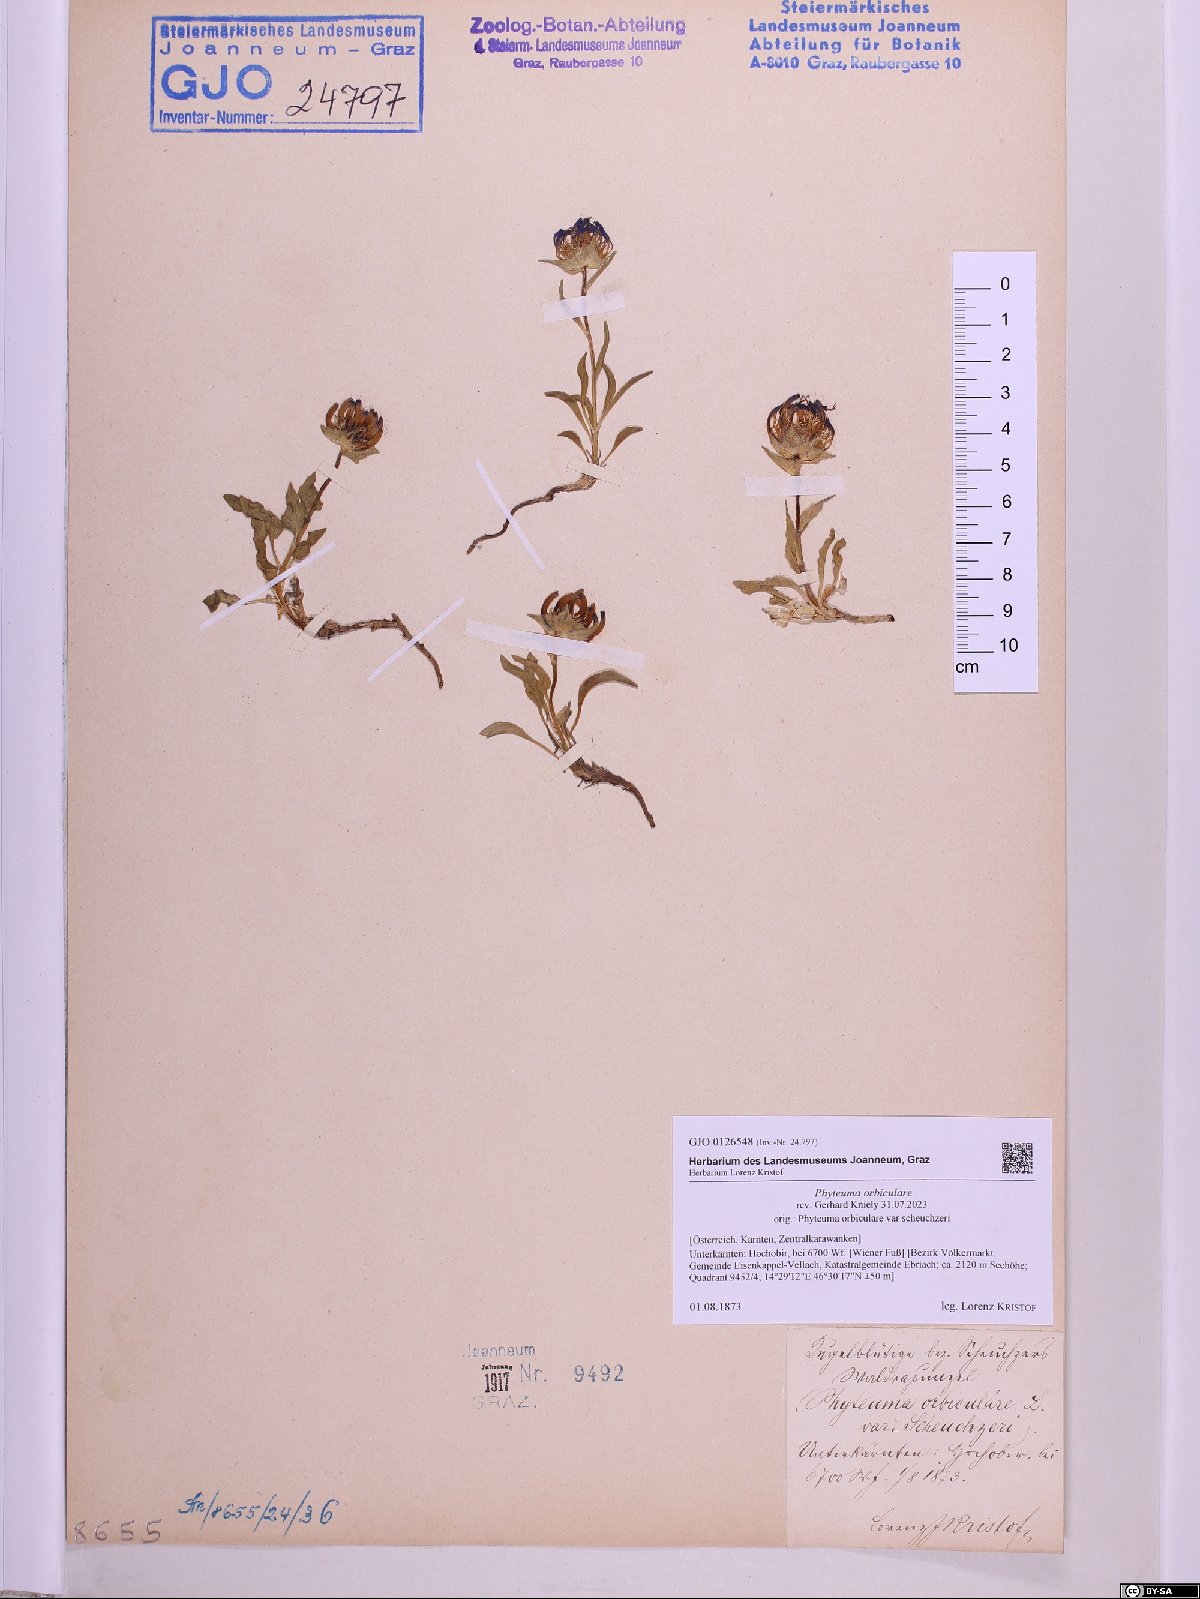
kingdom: Plantae
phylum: Tracheophyta
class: Magnoliopsida
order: Asterales
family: Campanulaceae
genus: Phyteuma
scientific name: Phyteuma orbiculare
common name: Round-headed rampion
